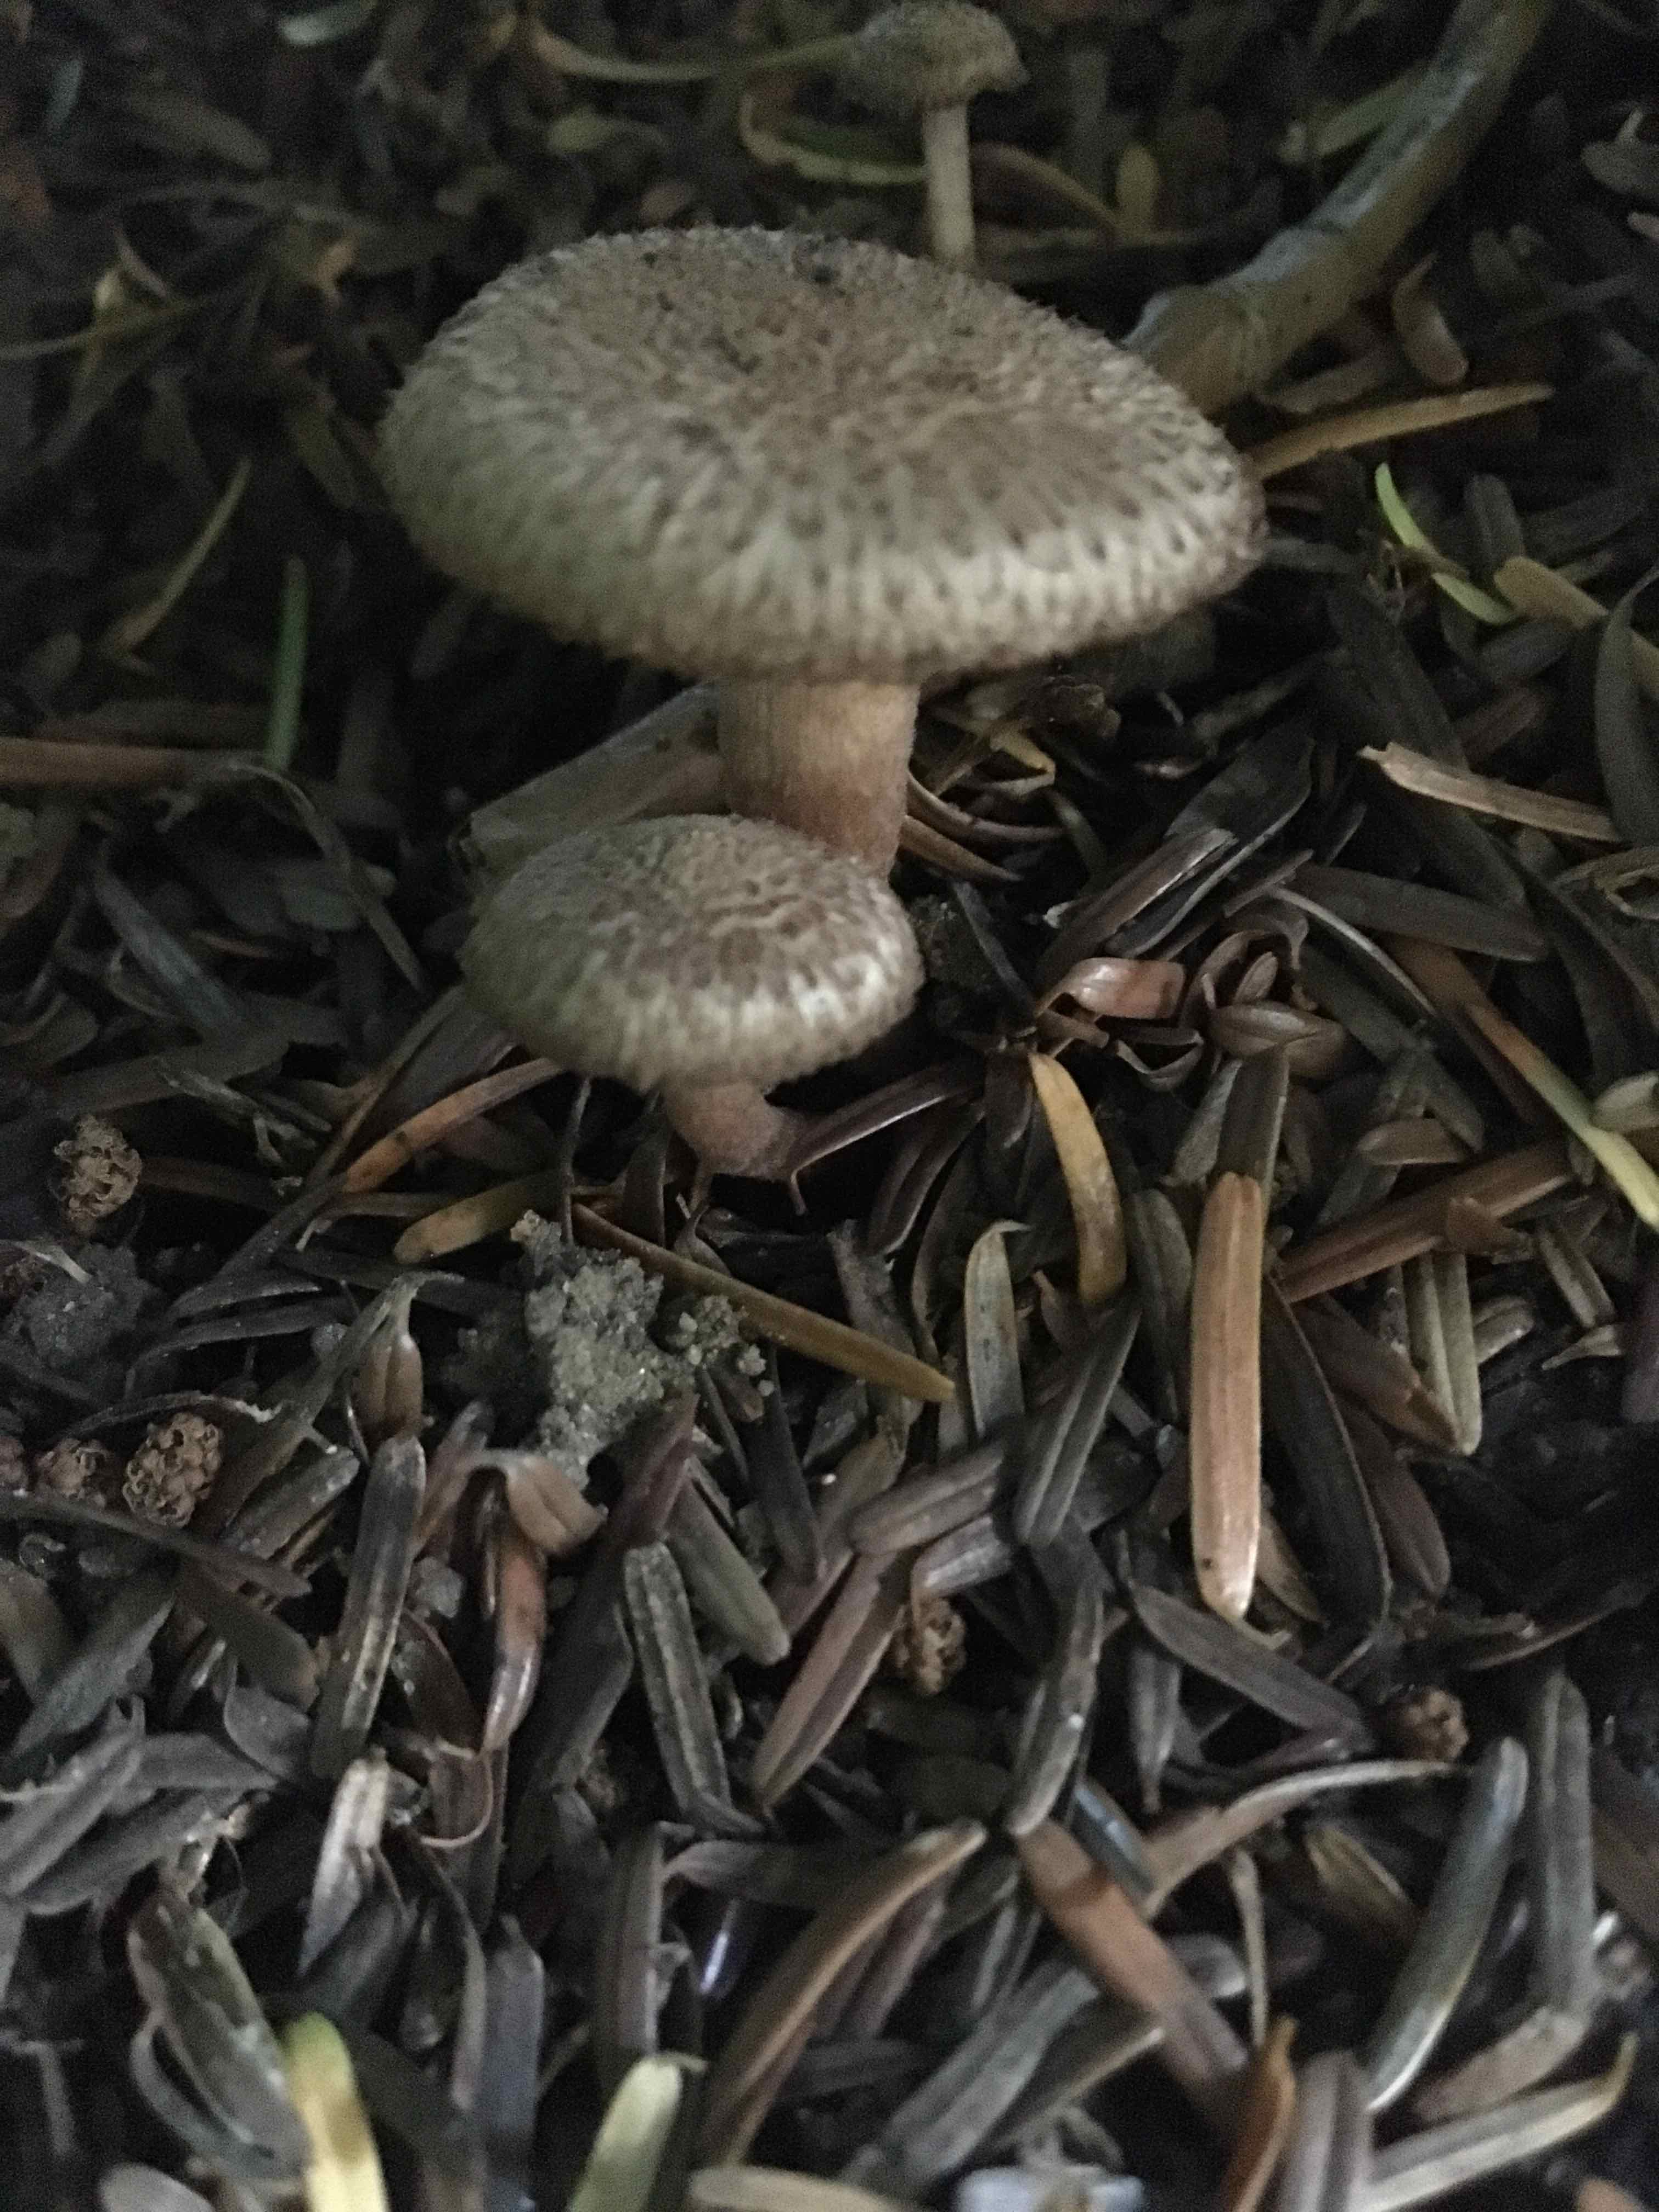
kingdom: Fungi
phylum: Basidiomycota
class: Agaricomycetes
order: Agaricales
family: Inocybaceae
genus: Inocybe
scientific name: Inocybe
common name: trævlhat
